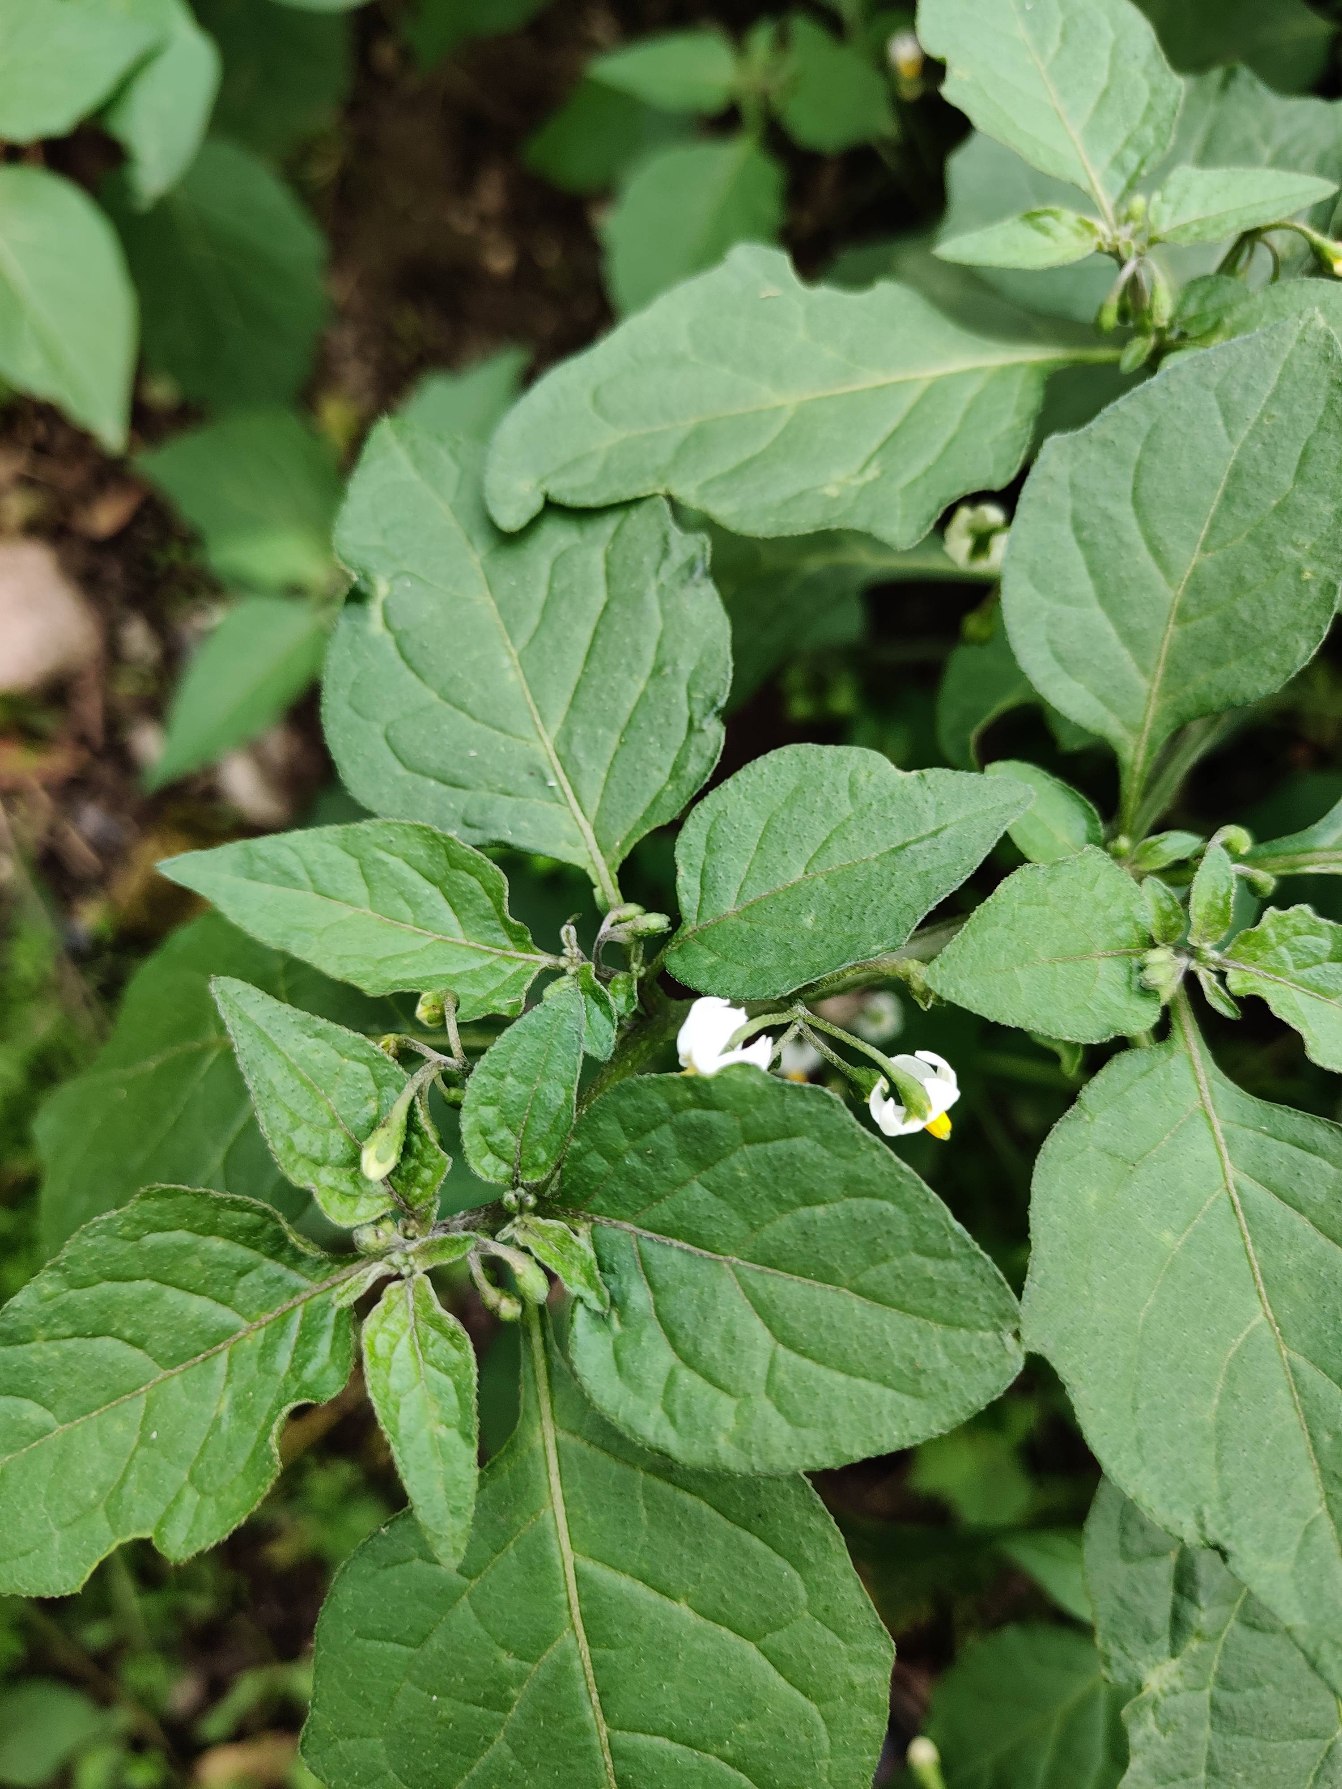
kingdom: Plantae
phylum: Tracheophyta
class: Magnoliopsida
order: Solanales
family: Solanaceae
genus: Solanum
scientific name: Solanum nigrum
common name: Sort natskygge
